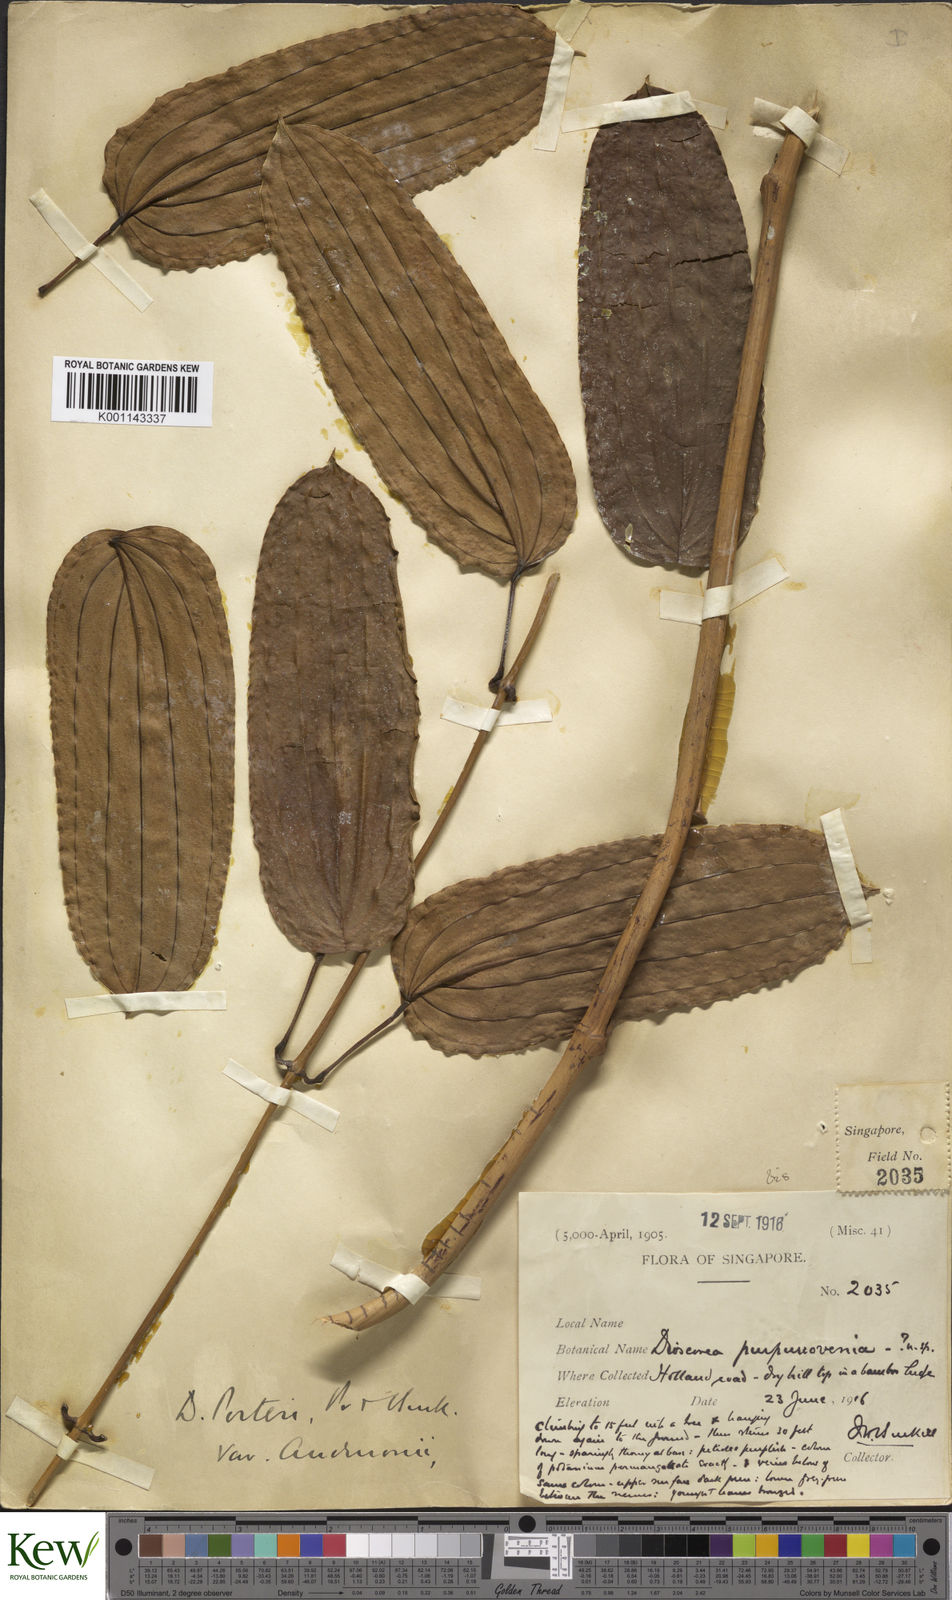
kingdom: Plantae
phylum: Tracheophyta
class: Liliopsida
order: Dioscoreales
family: Dioscoreaceae
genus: Dioscorea
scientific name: Dioscorea kingii
